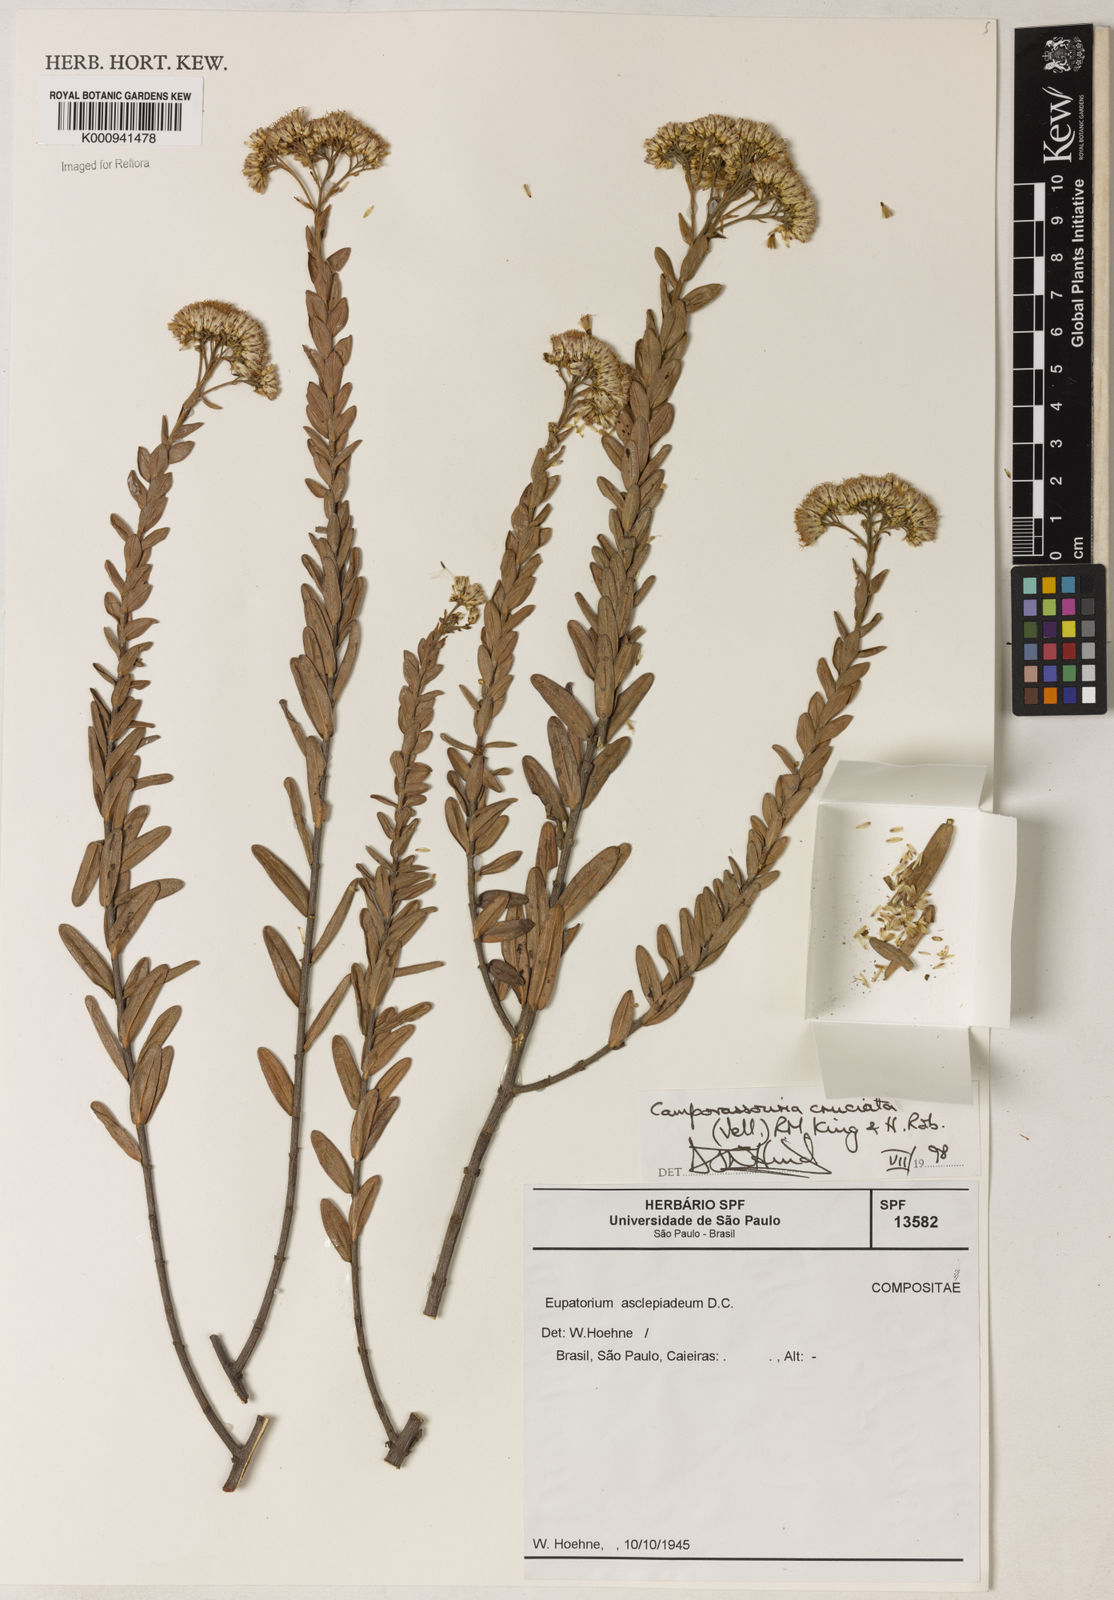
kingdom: Plantae
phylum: Tracheophyta
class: Magnoliopsida
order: Asterales
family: Asteraceae
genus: Campovassouria
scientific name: Campovassouria cruciata
